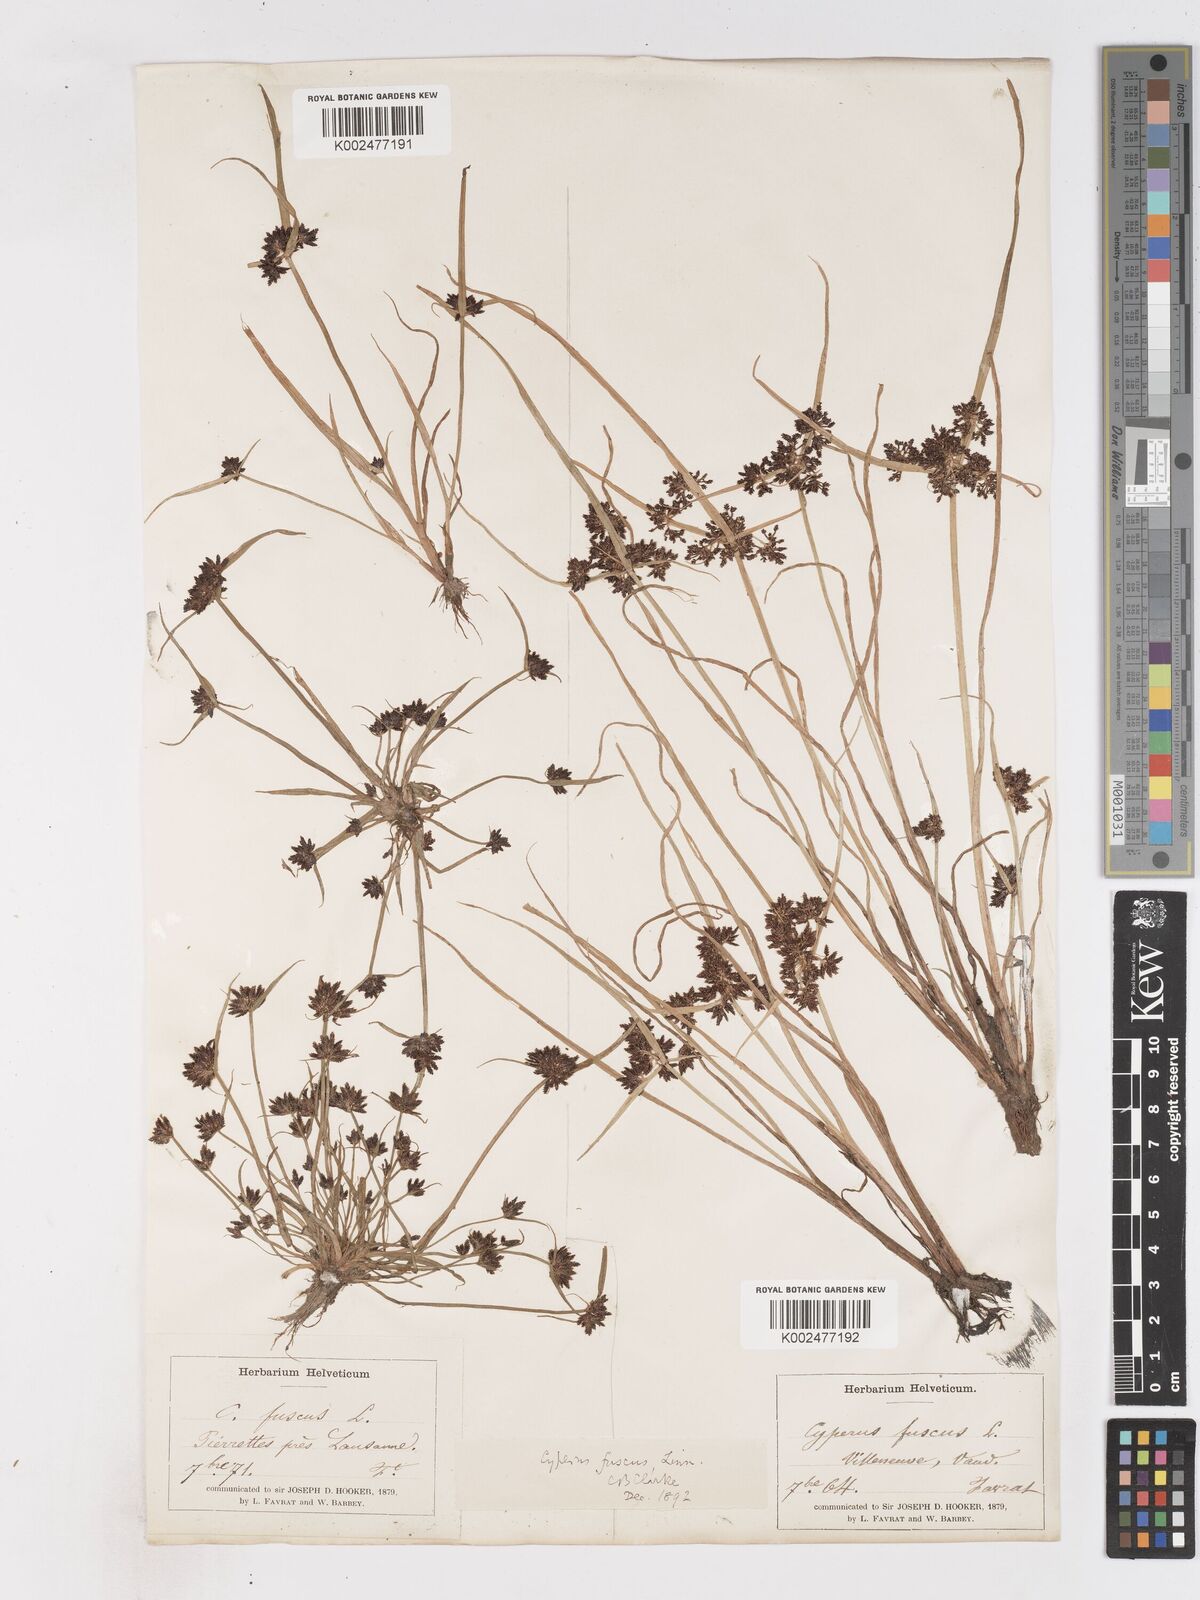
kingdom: Plantae
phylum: Tracheophyta
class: Liliopsida
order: Poales
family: Cyperaceae
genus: Cyperus
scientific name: Cyperus fuscus
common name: Brown galingale
